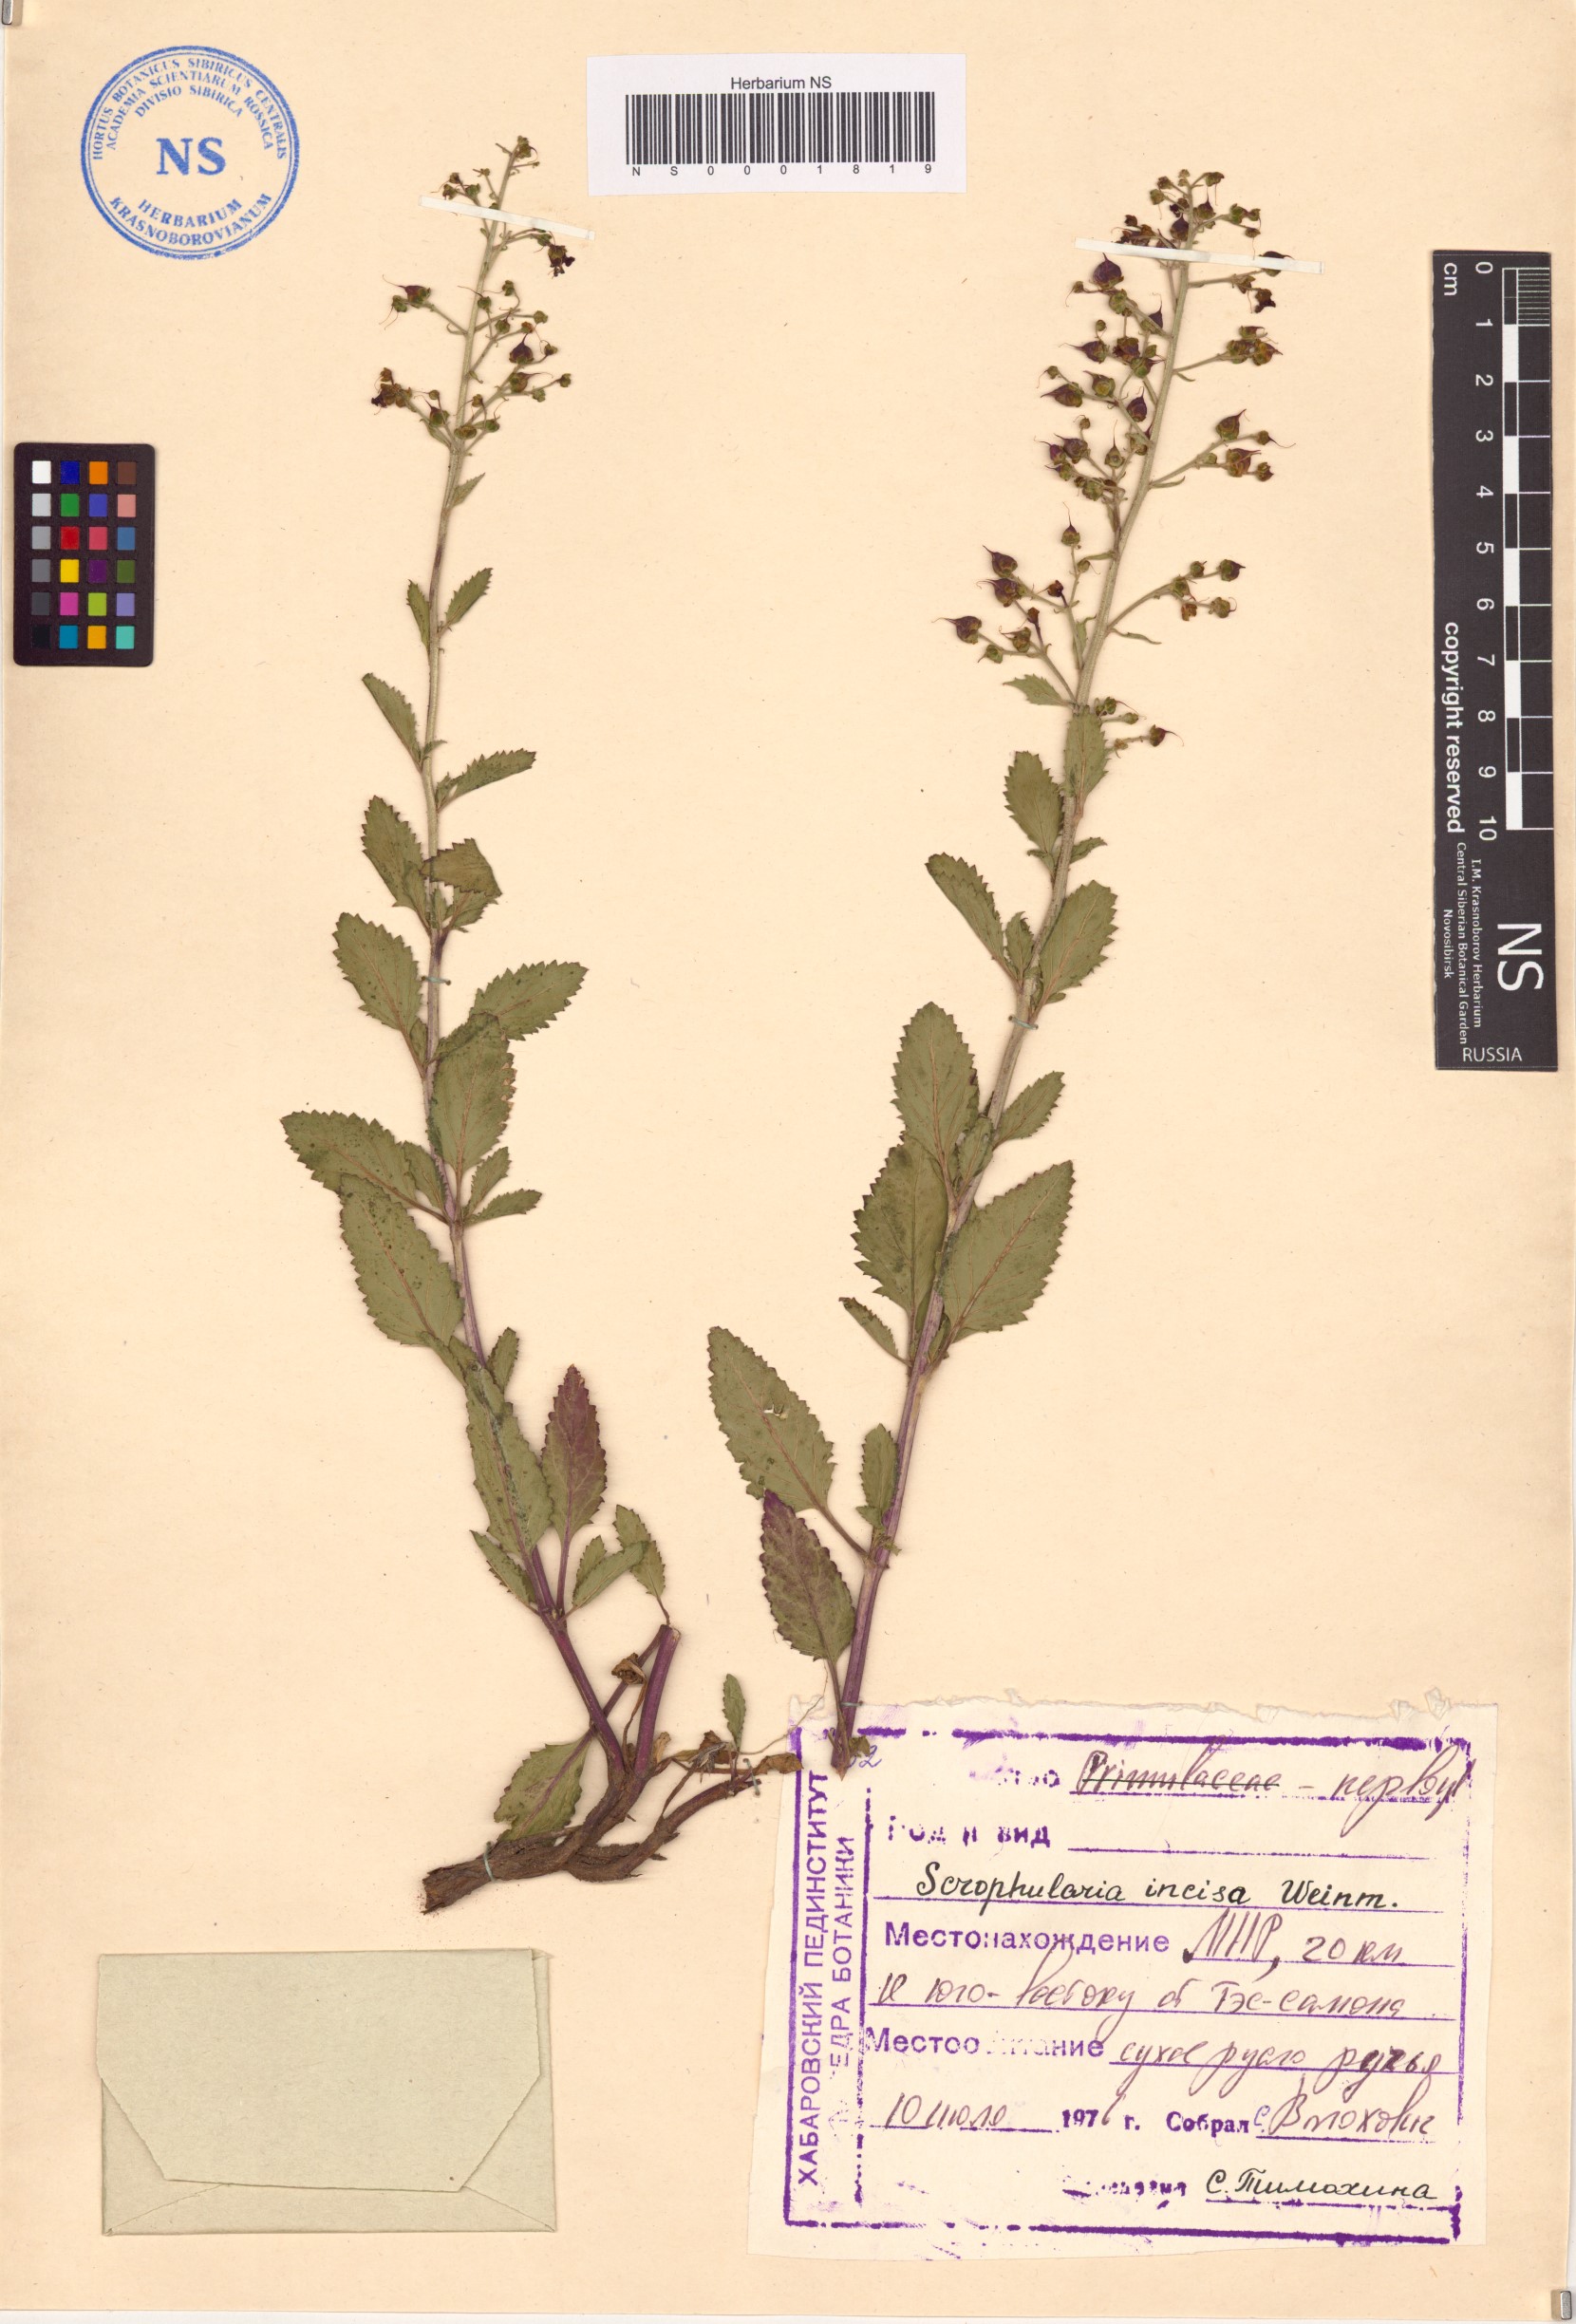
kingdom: Plantae
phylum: Tracheophyta
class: Magnoliopsida
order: Lamiales
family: Scrophulariaceae
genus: Scrophularia
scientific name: Scrophularia incisa
